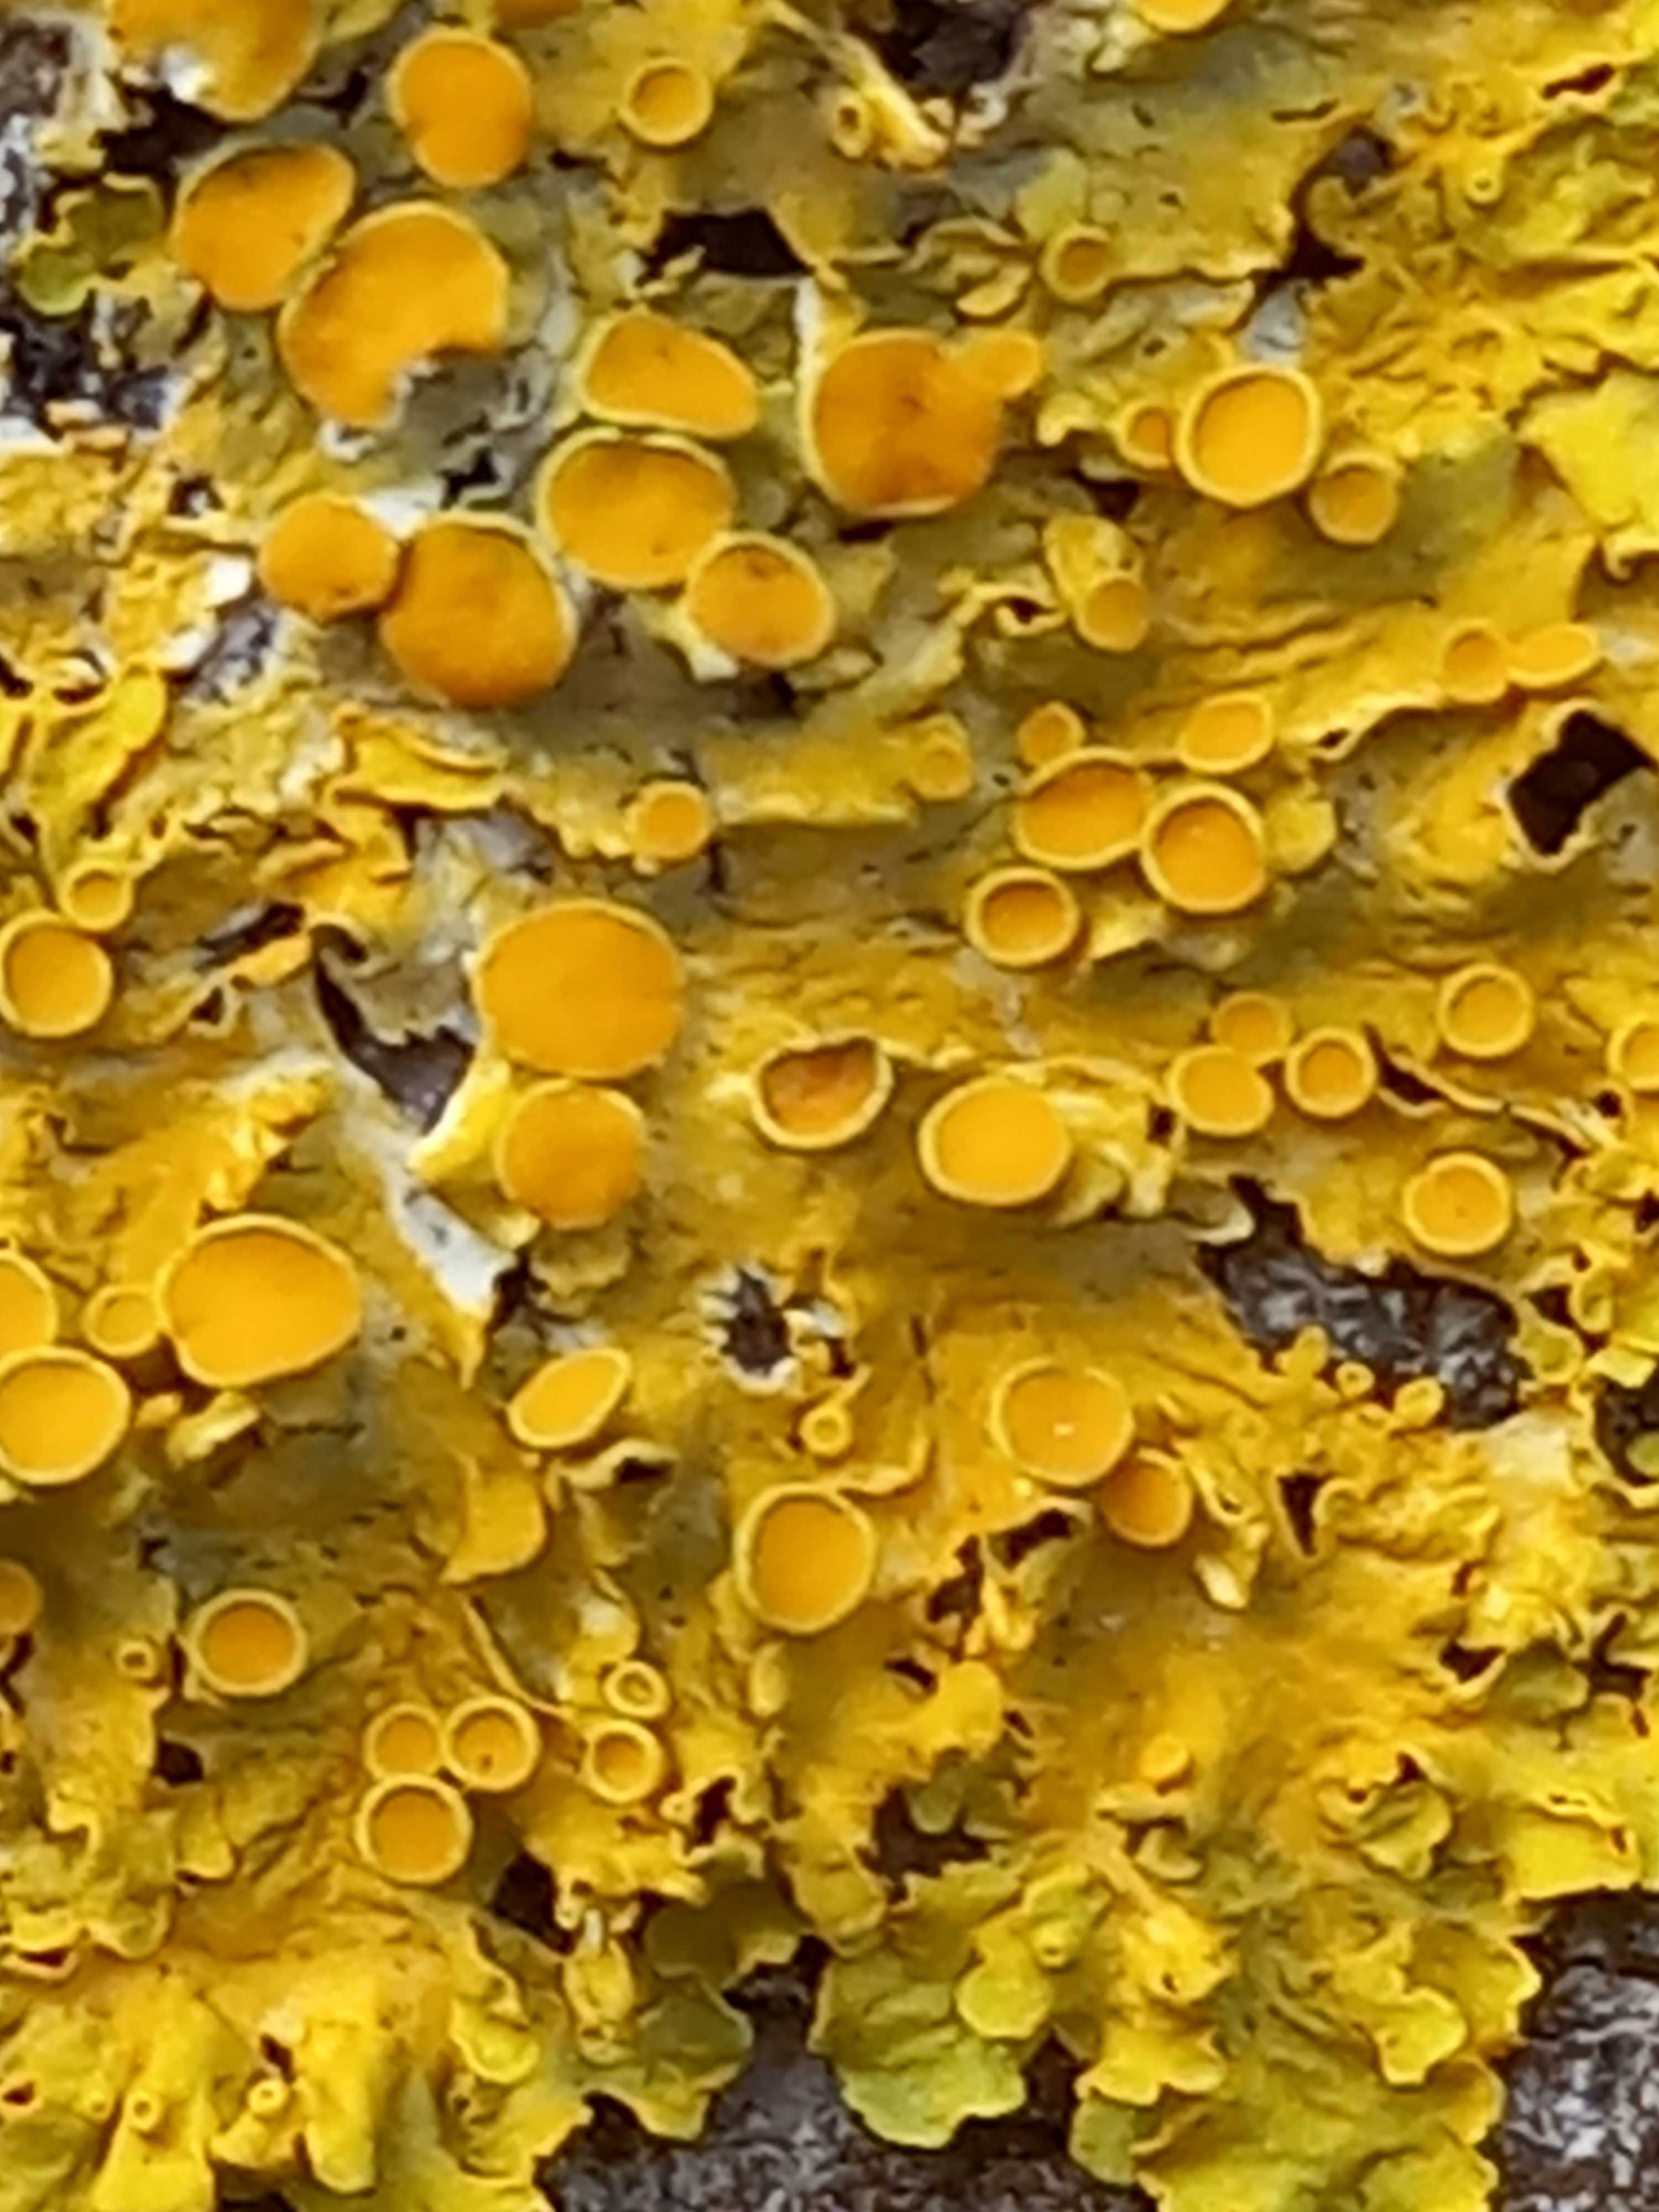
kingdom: Fungi
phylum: Ascomycota
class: Lecanoromycetes
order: Teloschistales
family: Teloschistaceae
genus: Xanthoria
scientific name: Xanthoria parietina
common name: almindelig væggelav
